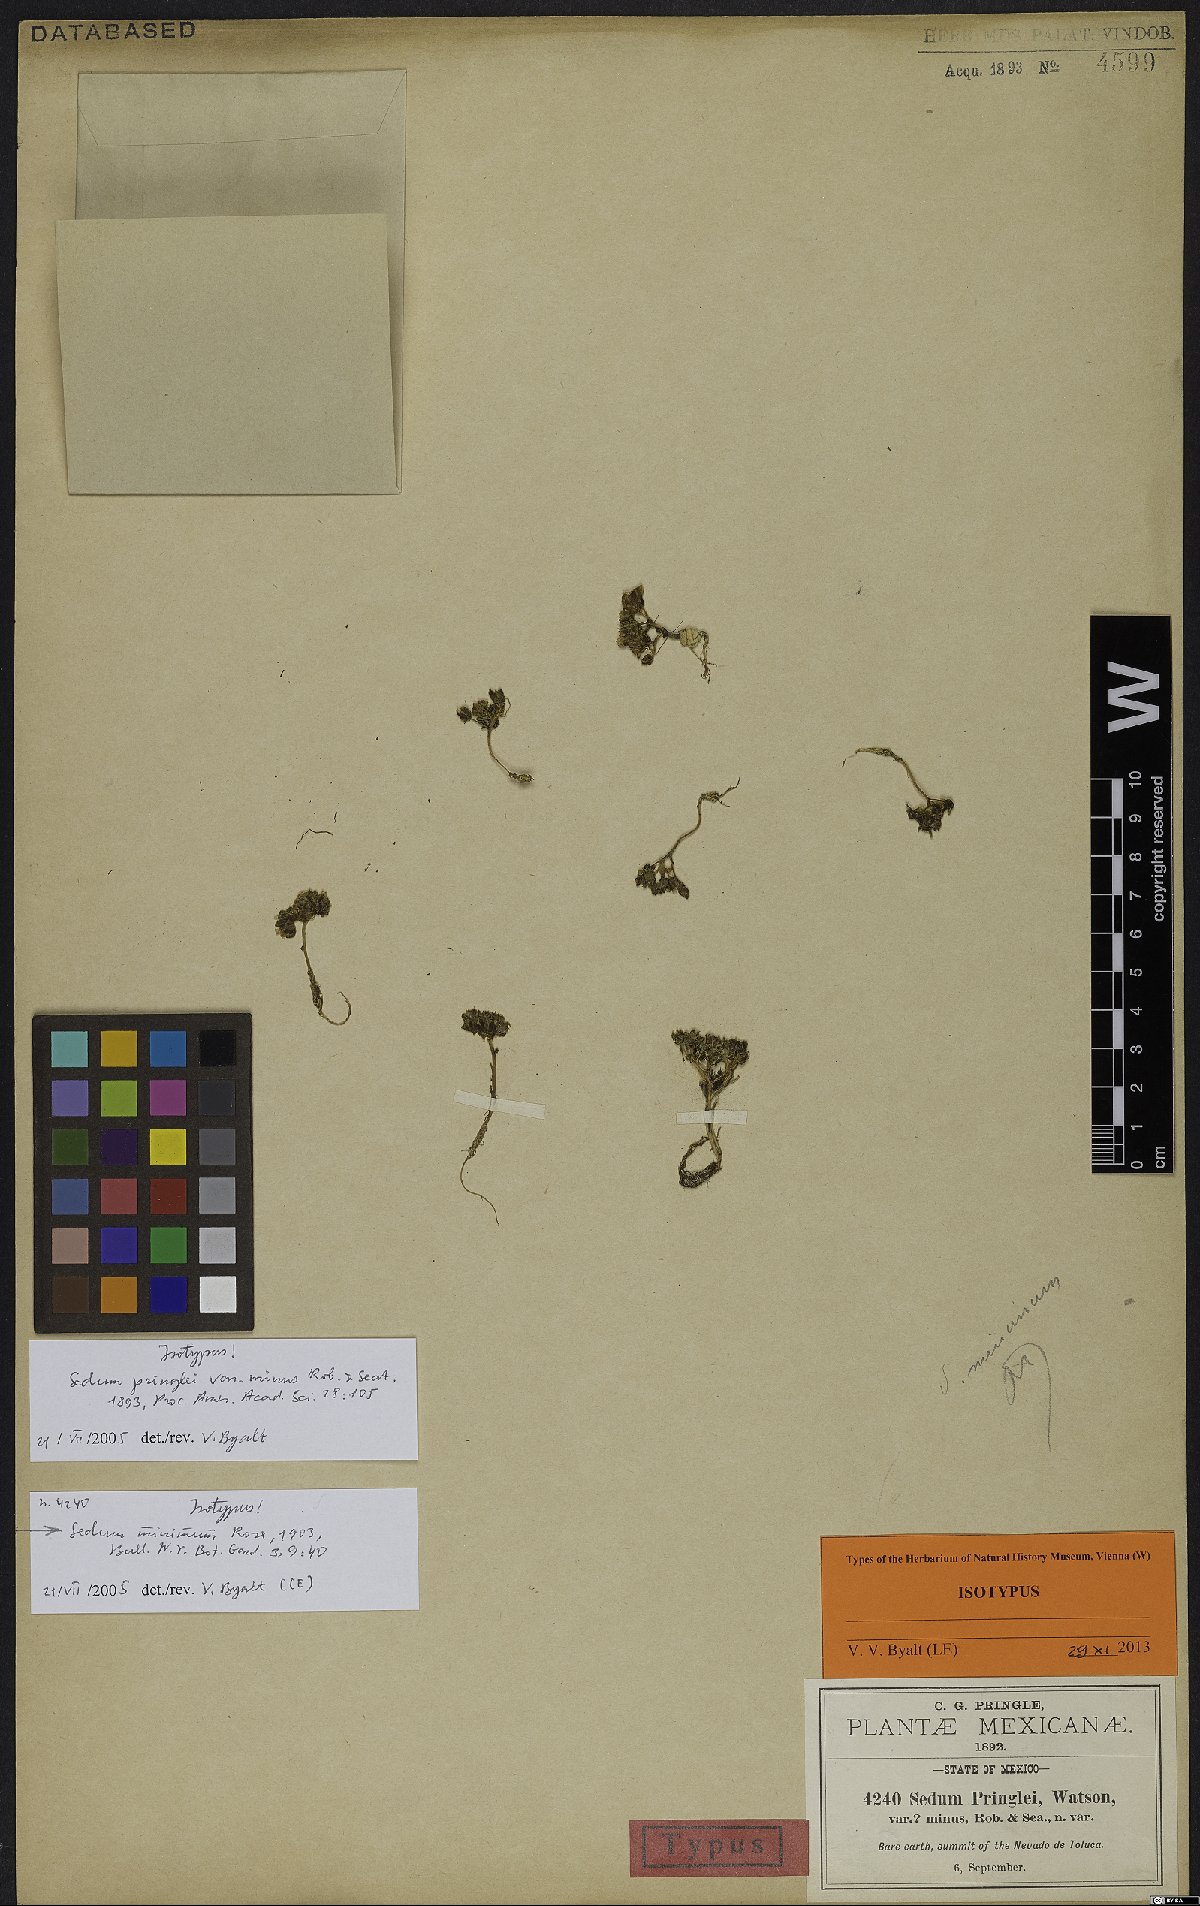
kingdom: Plantae
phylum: Tracheophyta
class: Magnoliopsida
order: Saxifragales
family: Crassulaceae
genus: Sedum
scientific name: Sedum minimum
